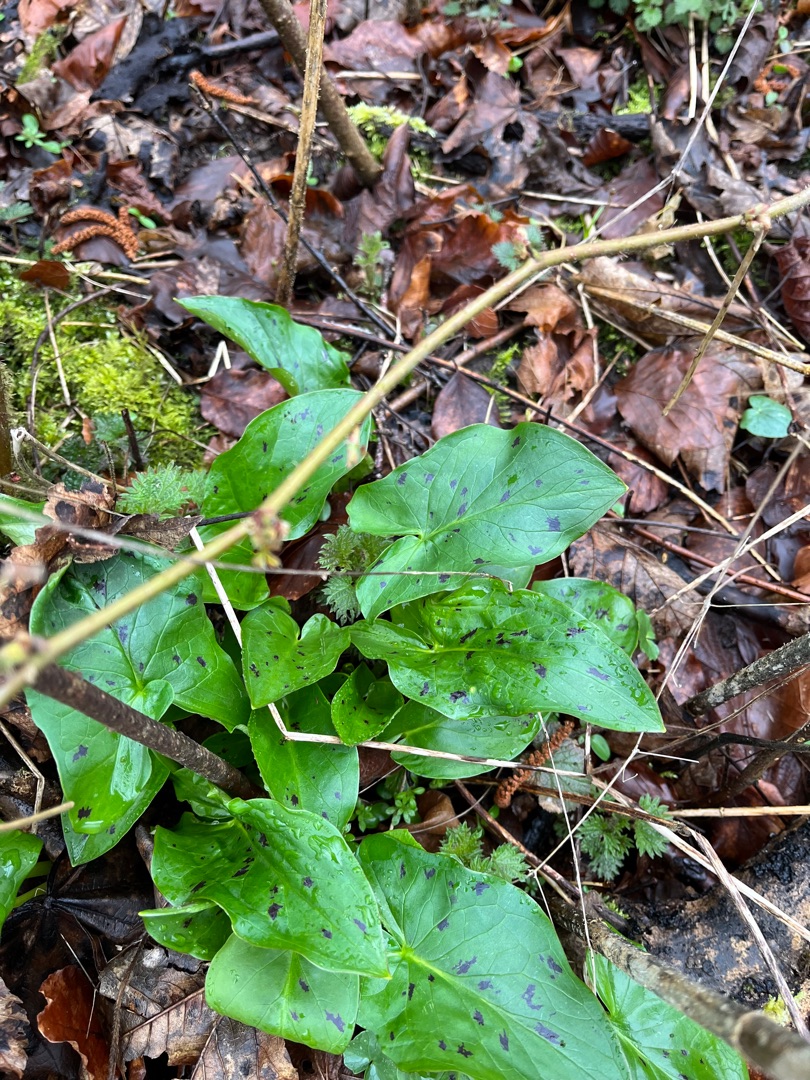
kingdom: Plantae
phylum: Tracheophyta
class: Liliopsida
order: Alismatales
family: Araceae
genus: Arum
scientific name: Arum maculatum
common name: Plettet arum
